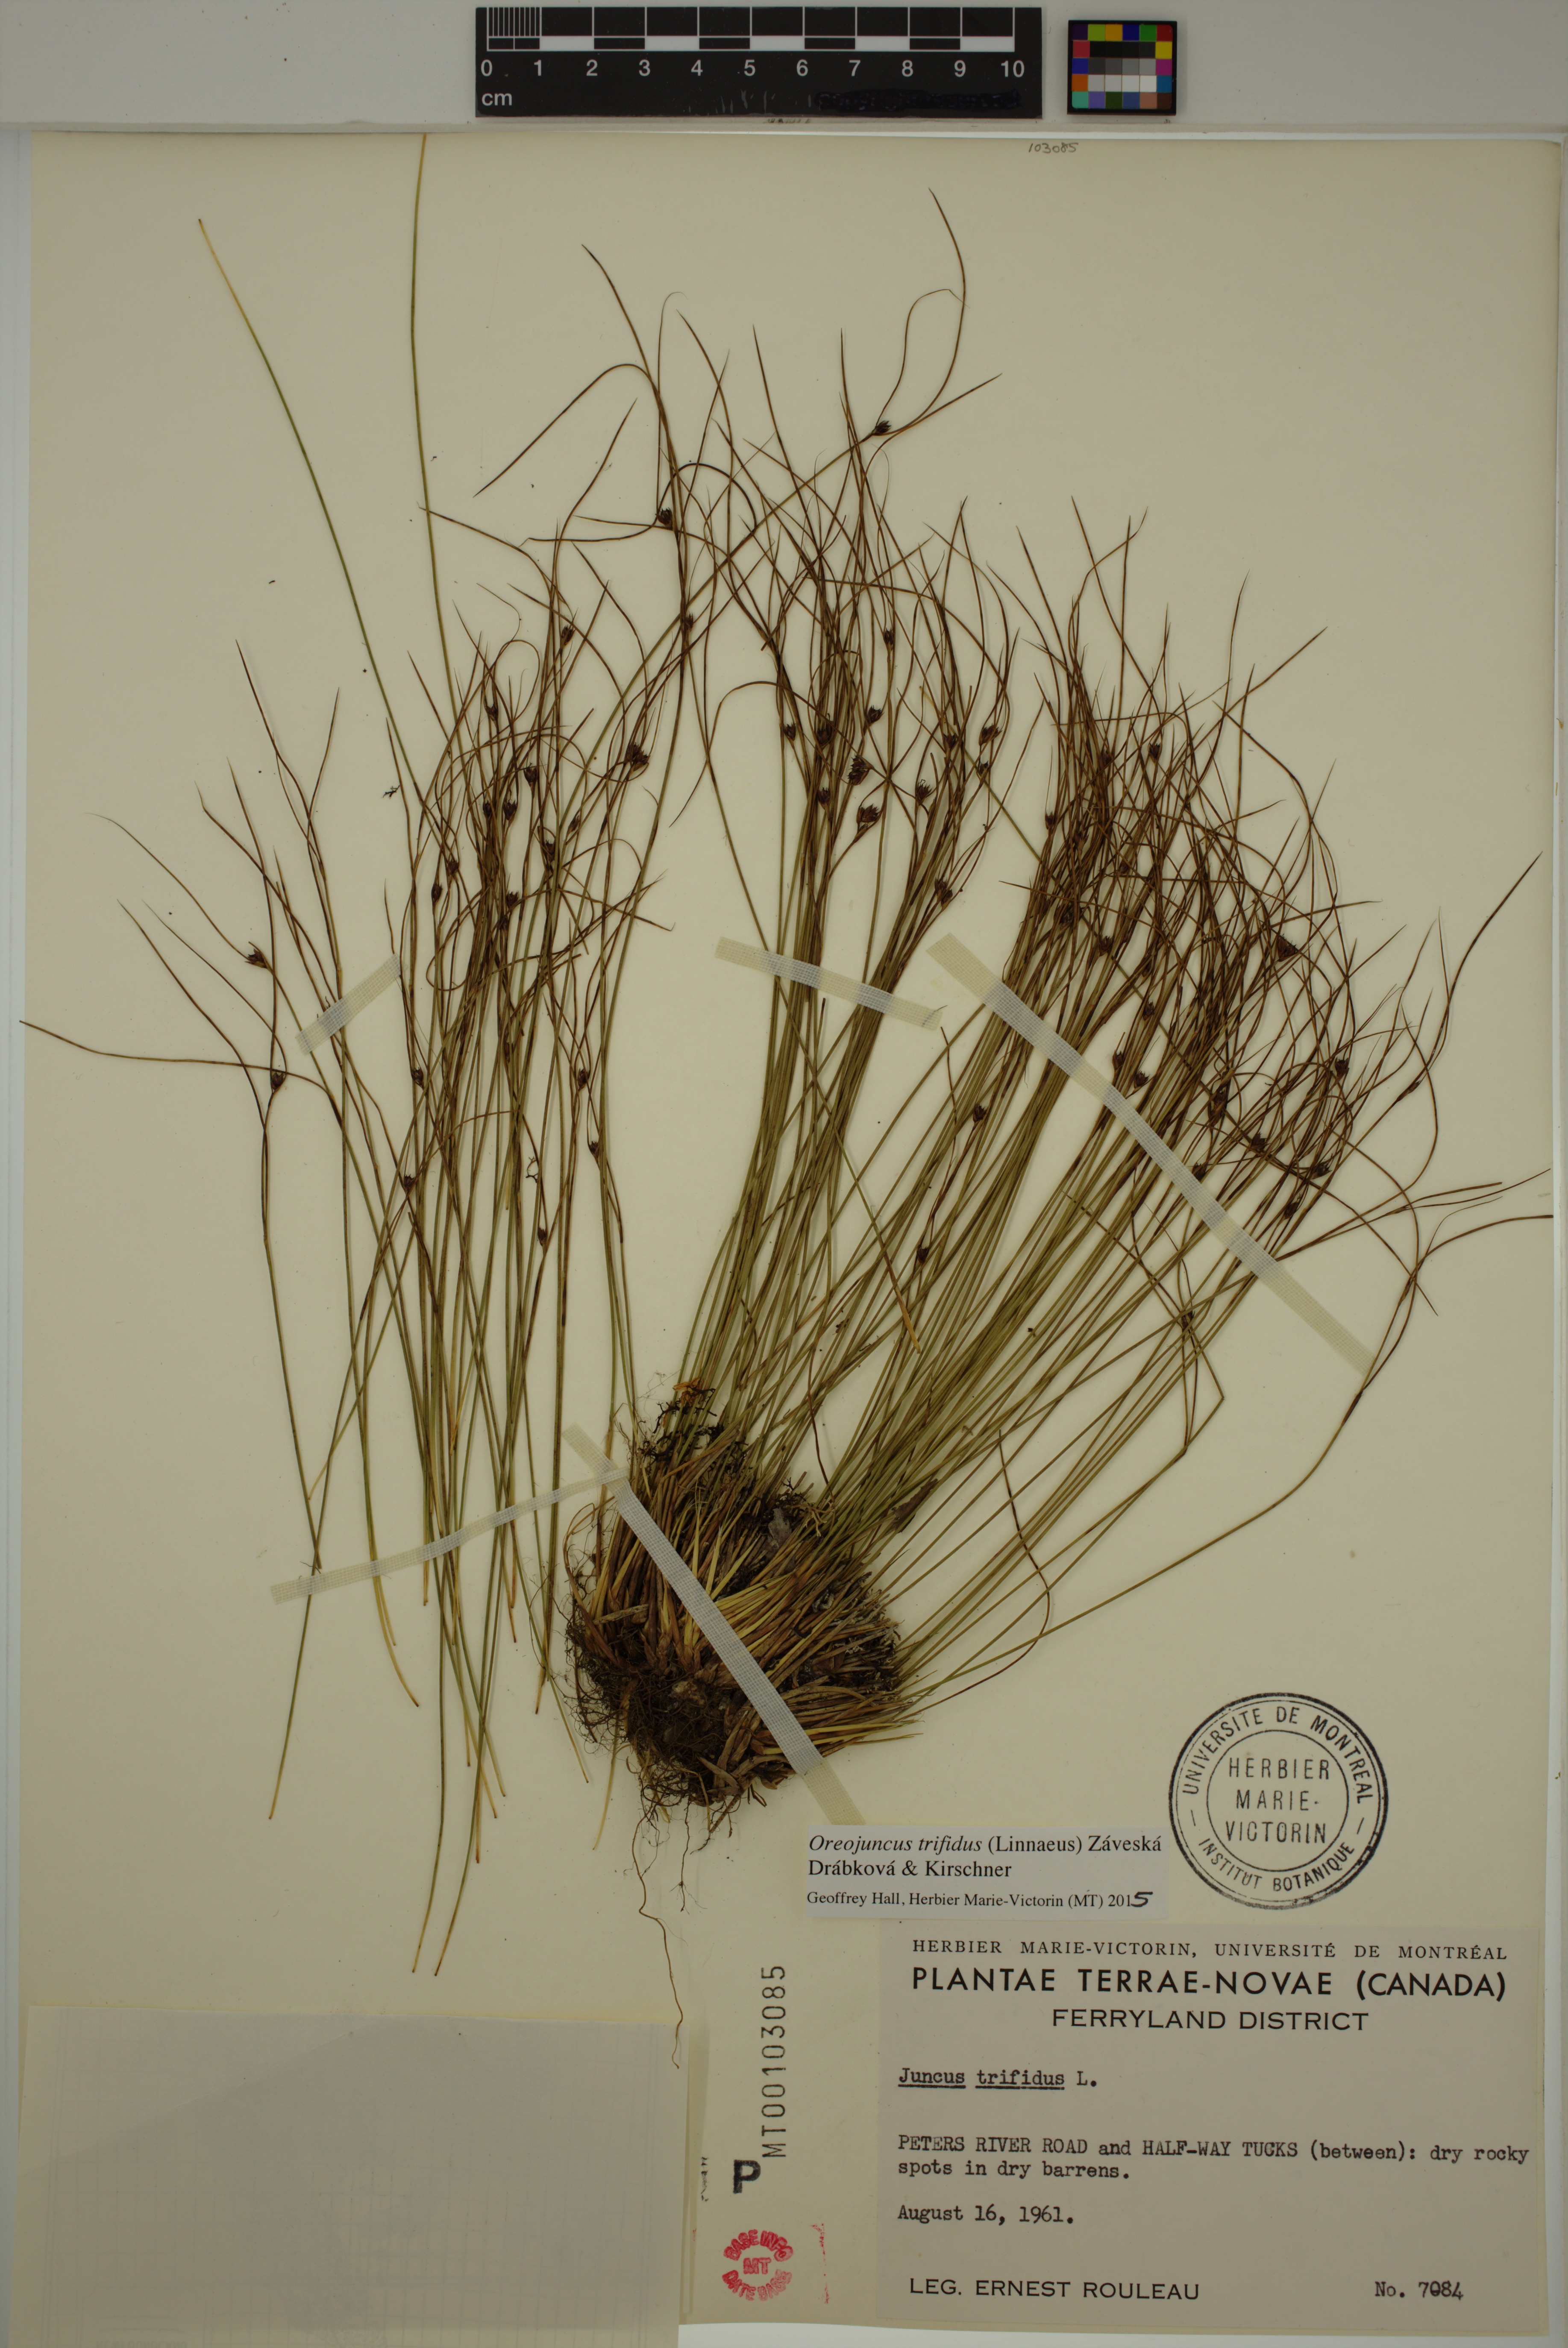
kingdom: Plantae
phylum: Tracheophyta
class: Liliopsida
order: Poales
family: Juncaceae
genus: Oreojuncus
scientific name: Oreojuncus trifidus
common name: Highland rush
